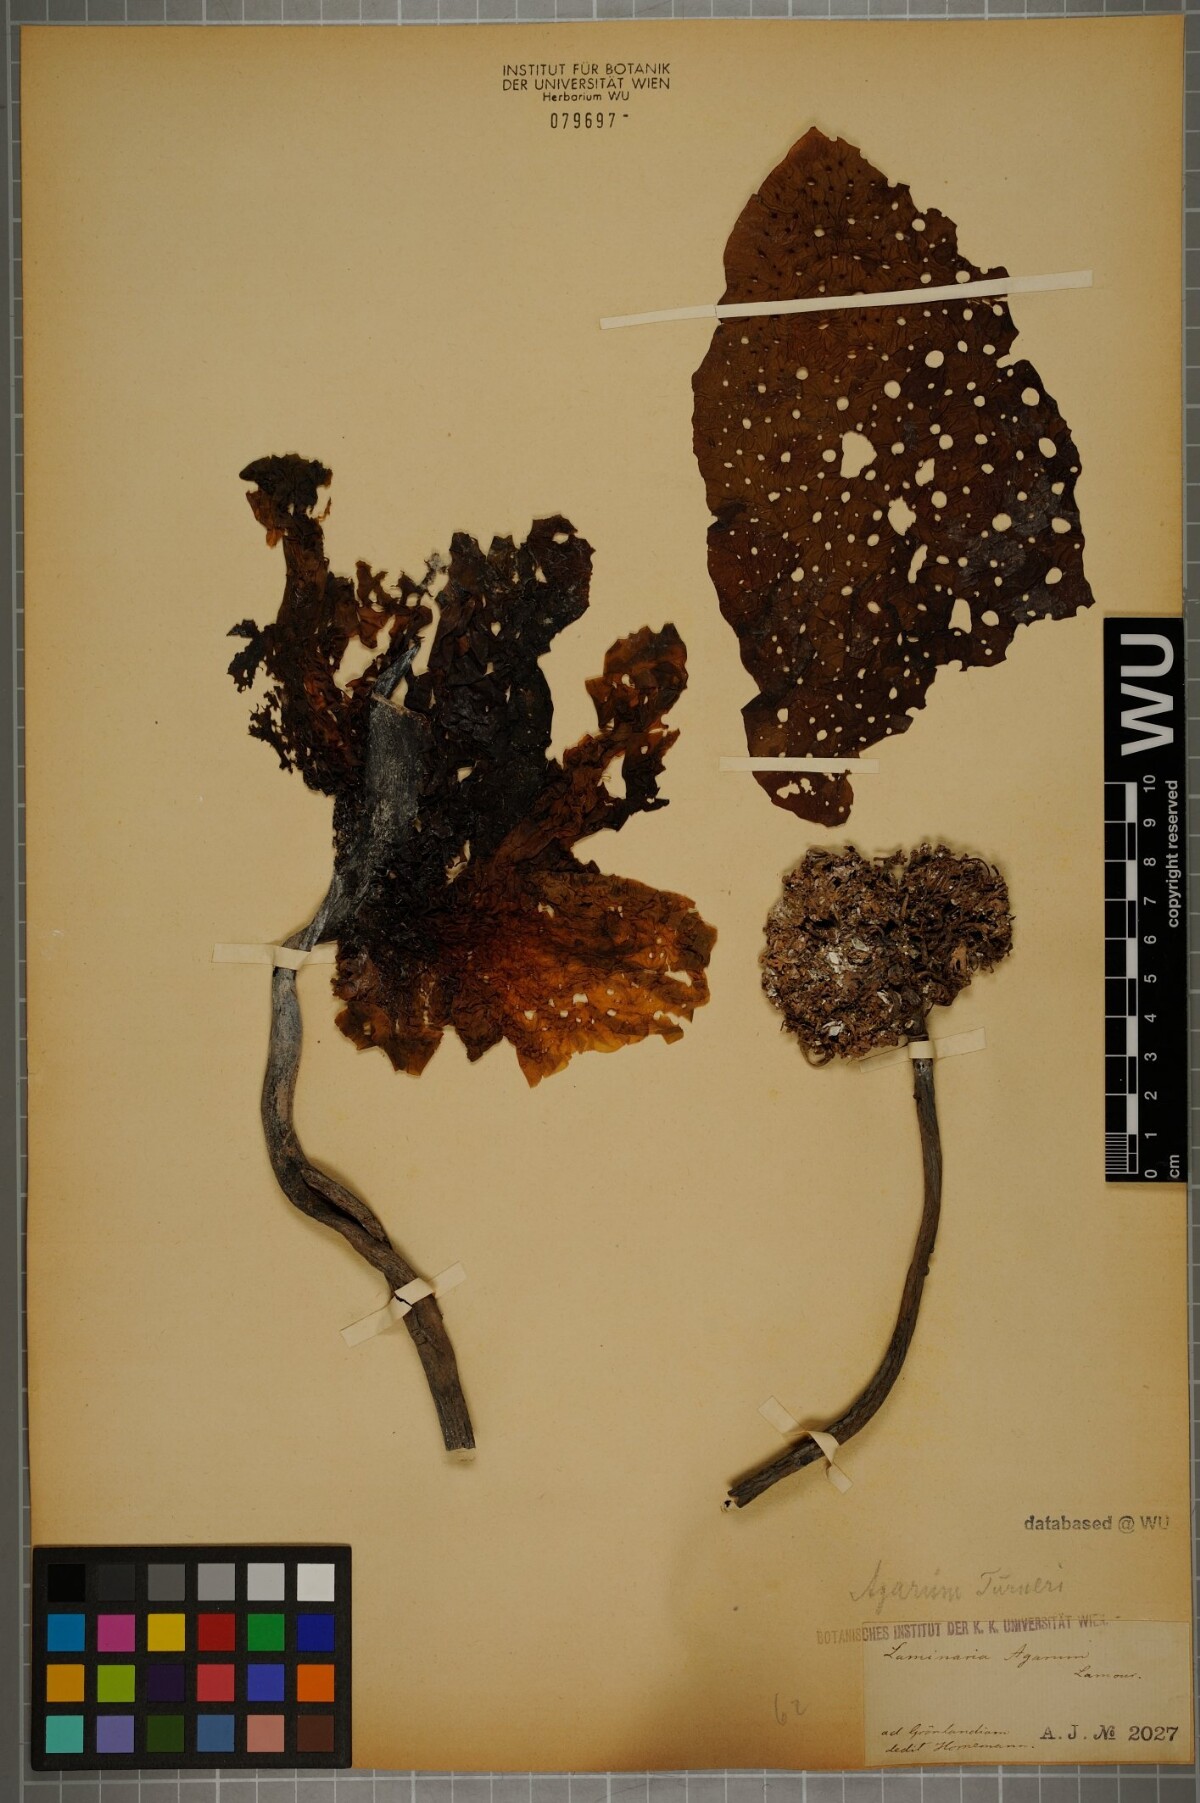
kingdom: Chromista
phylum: Ochrophyta
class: Phaeophyceae
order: Laminariales
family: Costariaceae
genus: Agarum
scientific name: Agarum turneri
